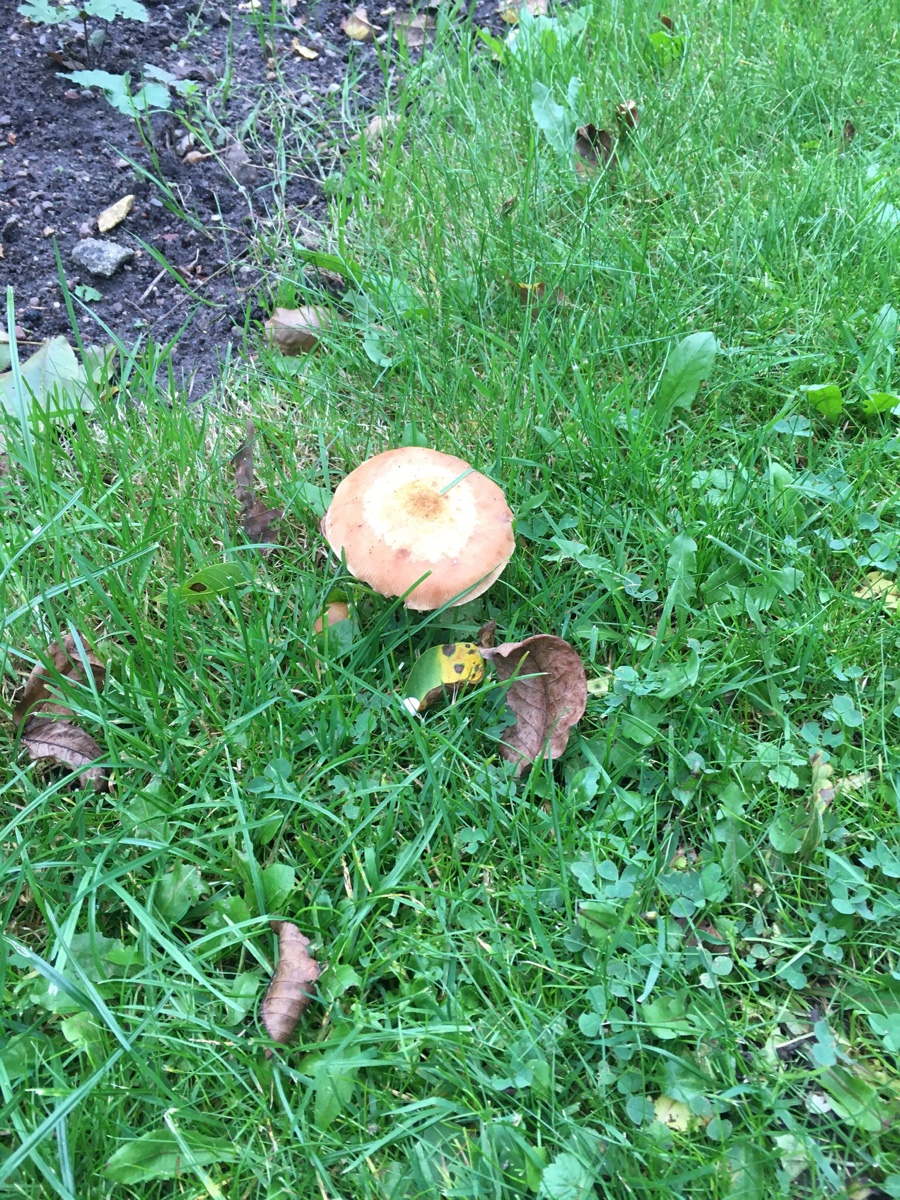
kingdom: Fungi
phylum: Basidiomycota
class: Agaricomycetes
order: Agaricales
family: Physalacriaceae
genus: Armillaria
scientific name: Armillaria lutea
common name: køllestokket honningsvamp
